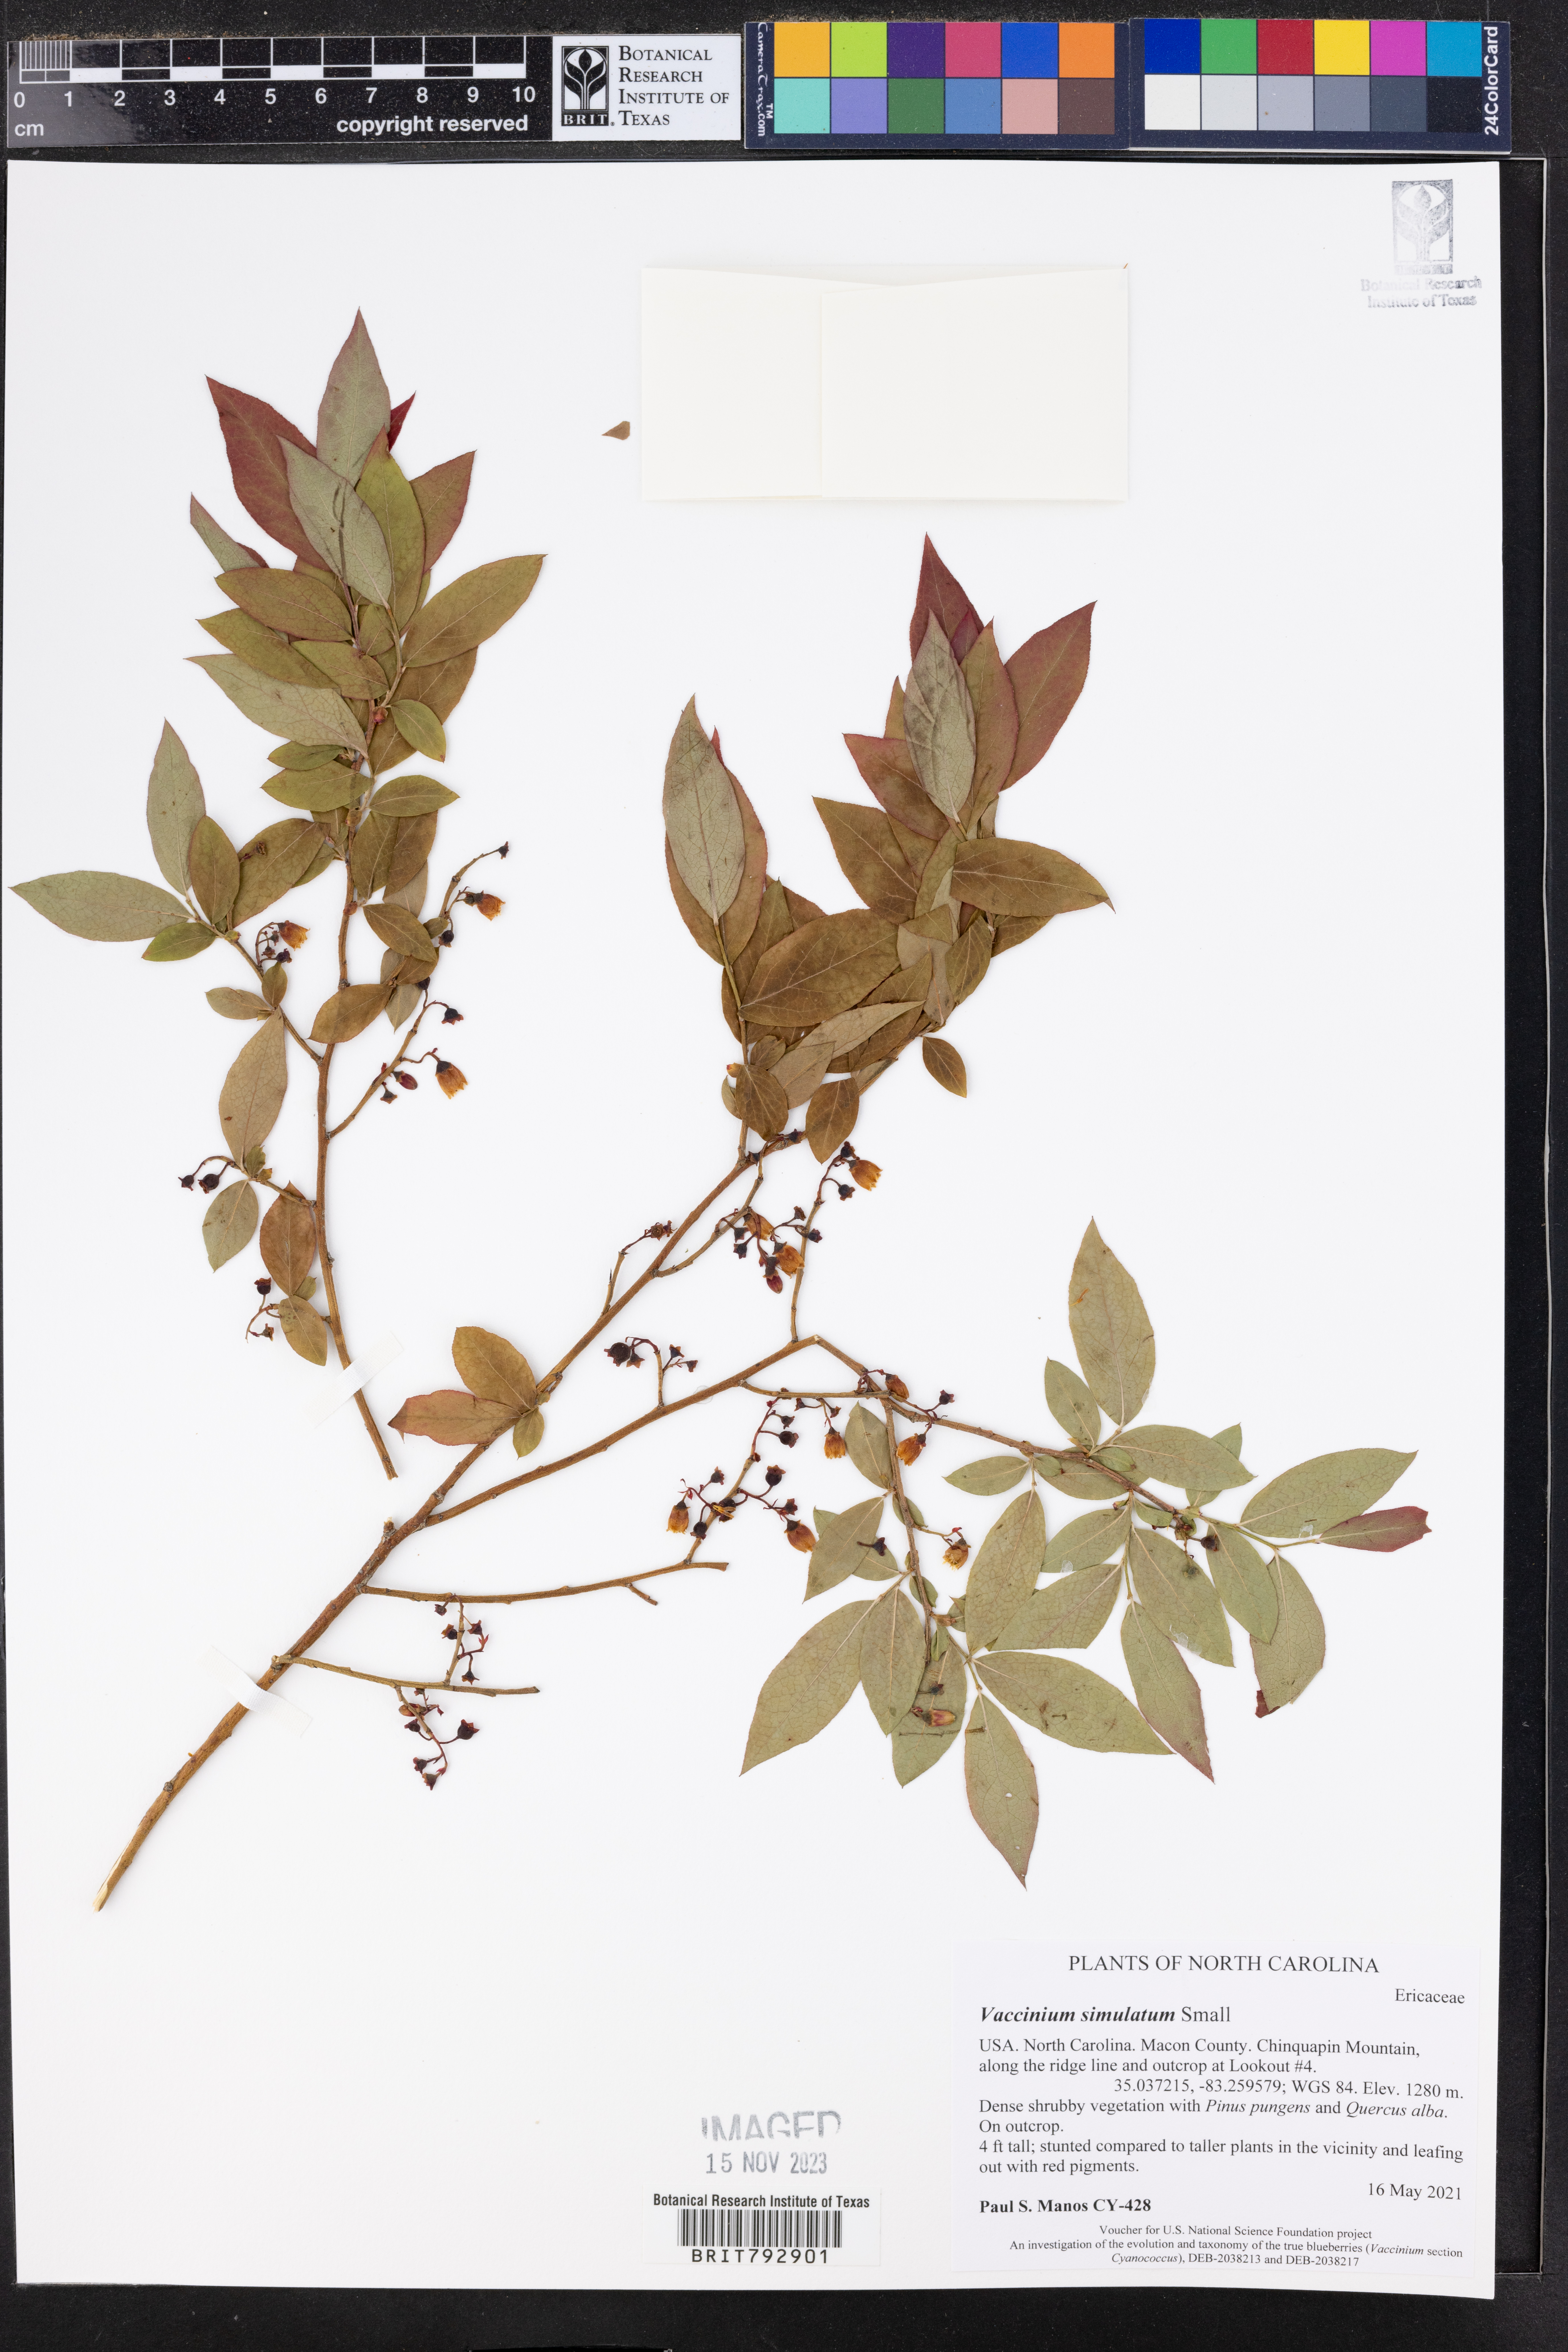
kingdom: Plantae
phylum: Tracheophyta
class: Magnoliopsida
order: Ericales
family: Ericaceae
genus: Vaccinium
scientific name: Vaccinium corymbosum
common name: Blueberry
